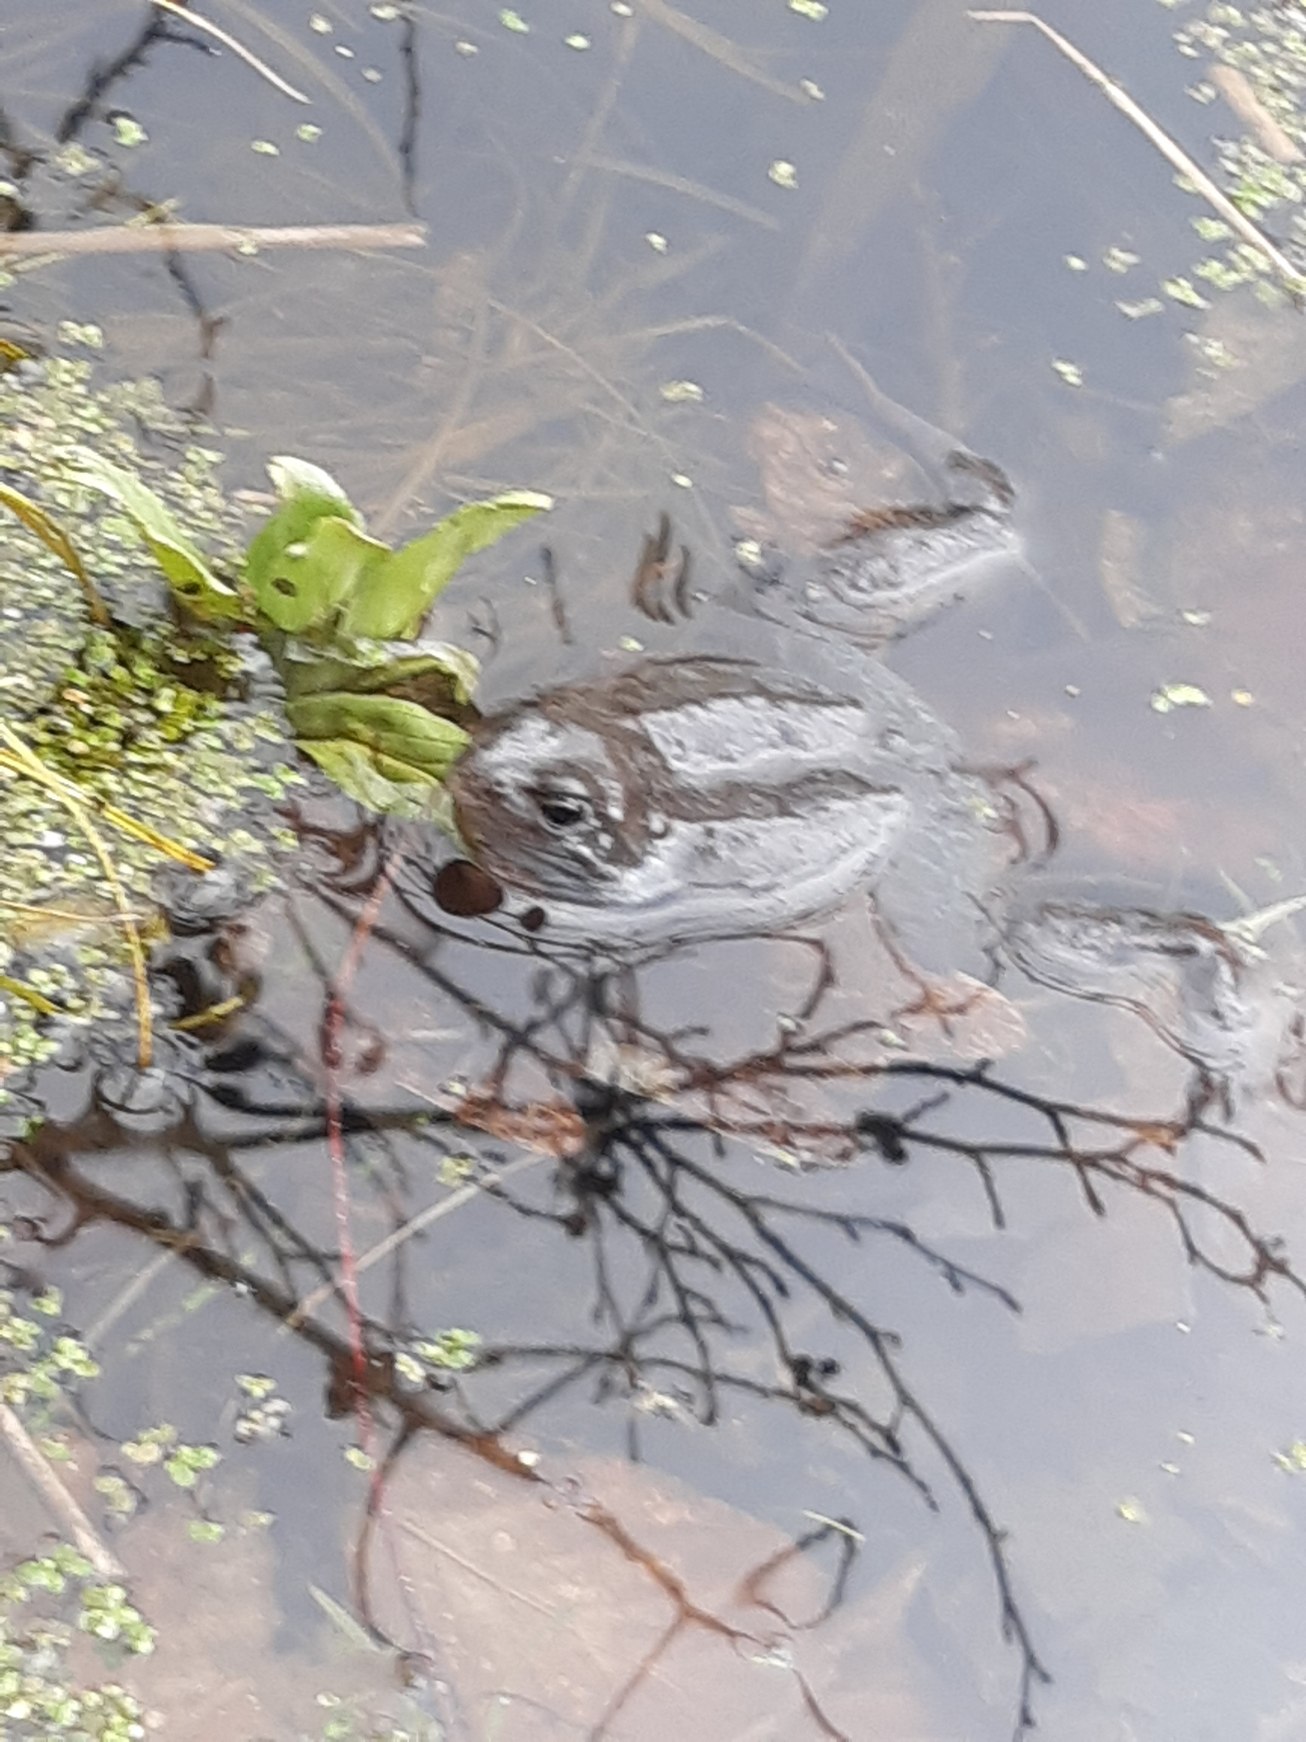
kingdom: Animalia
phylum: Chordata
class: Amphibia
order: Anura
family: Ranidae
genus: Rana
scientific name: Rana temporaria
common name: Butsnudet frø
